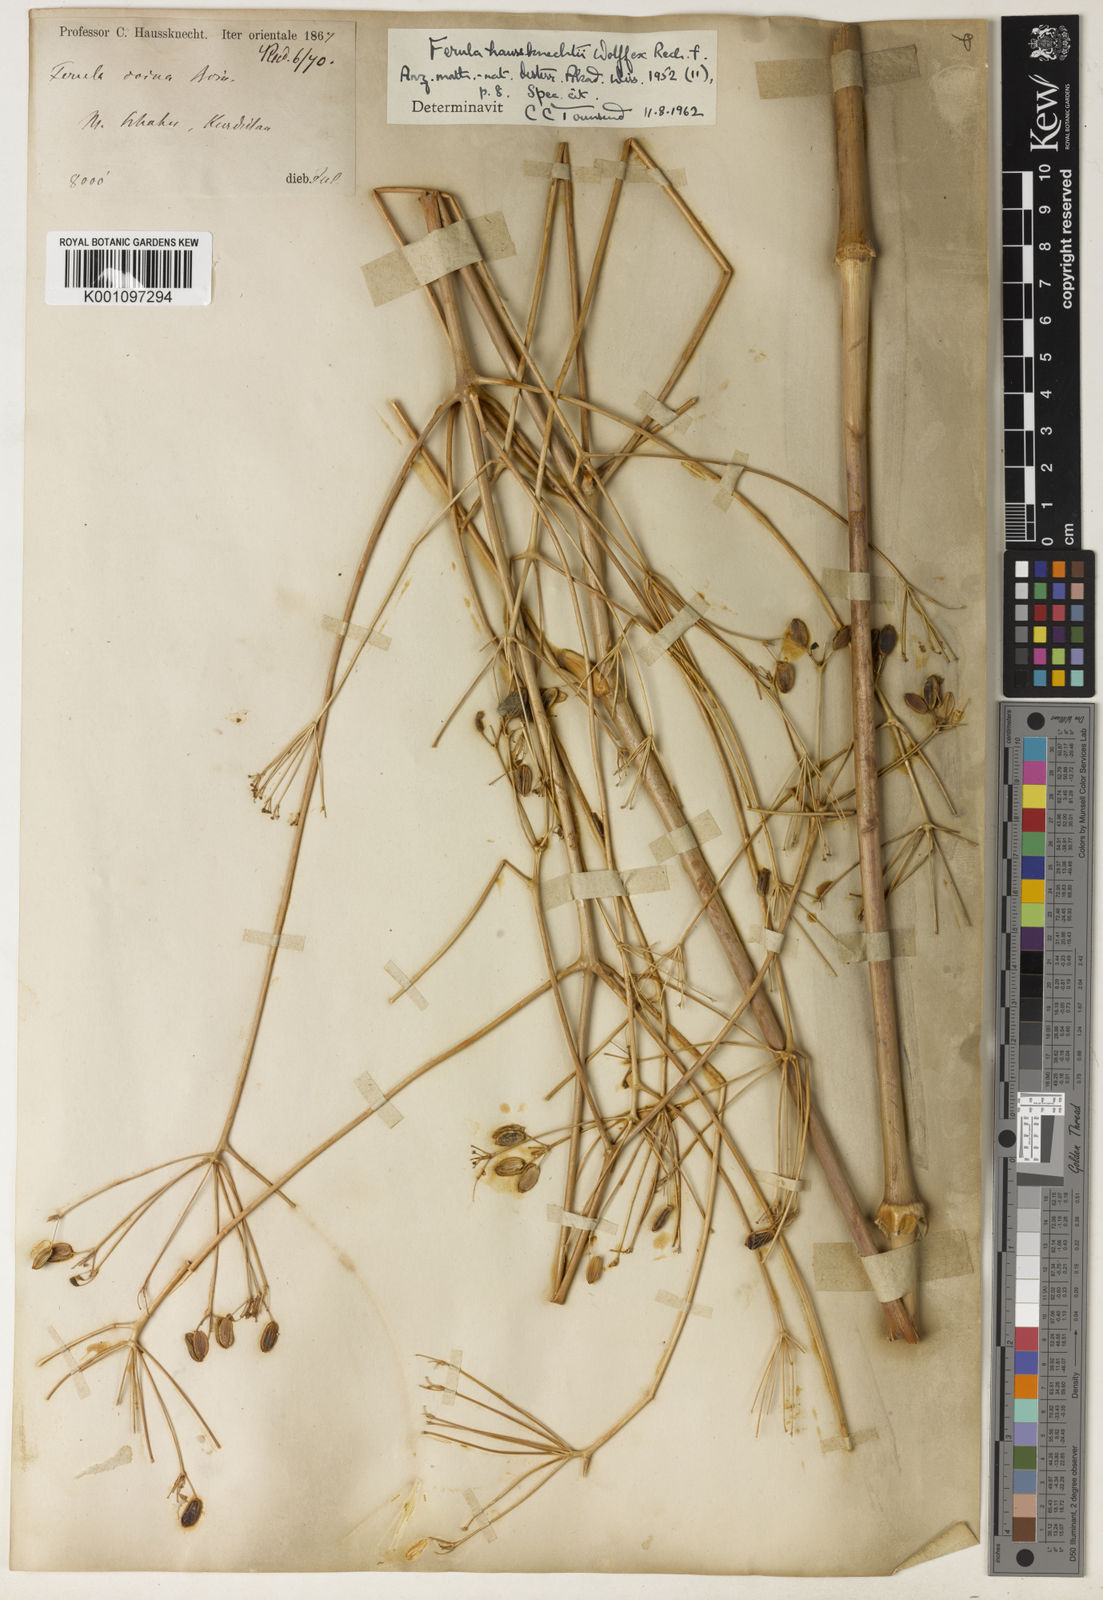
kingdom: Plantae
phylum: Tracheophyta
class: Magnoliopsida
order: Apiales
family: Apiaceae
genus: Ferula
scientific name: Ferula haussknechtii
